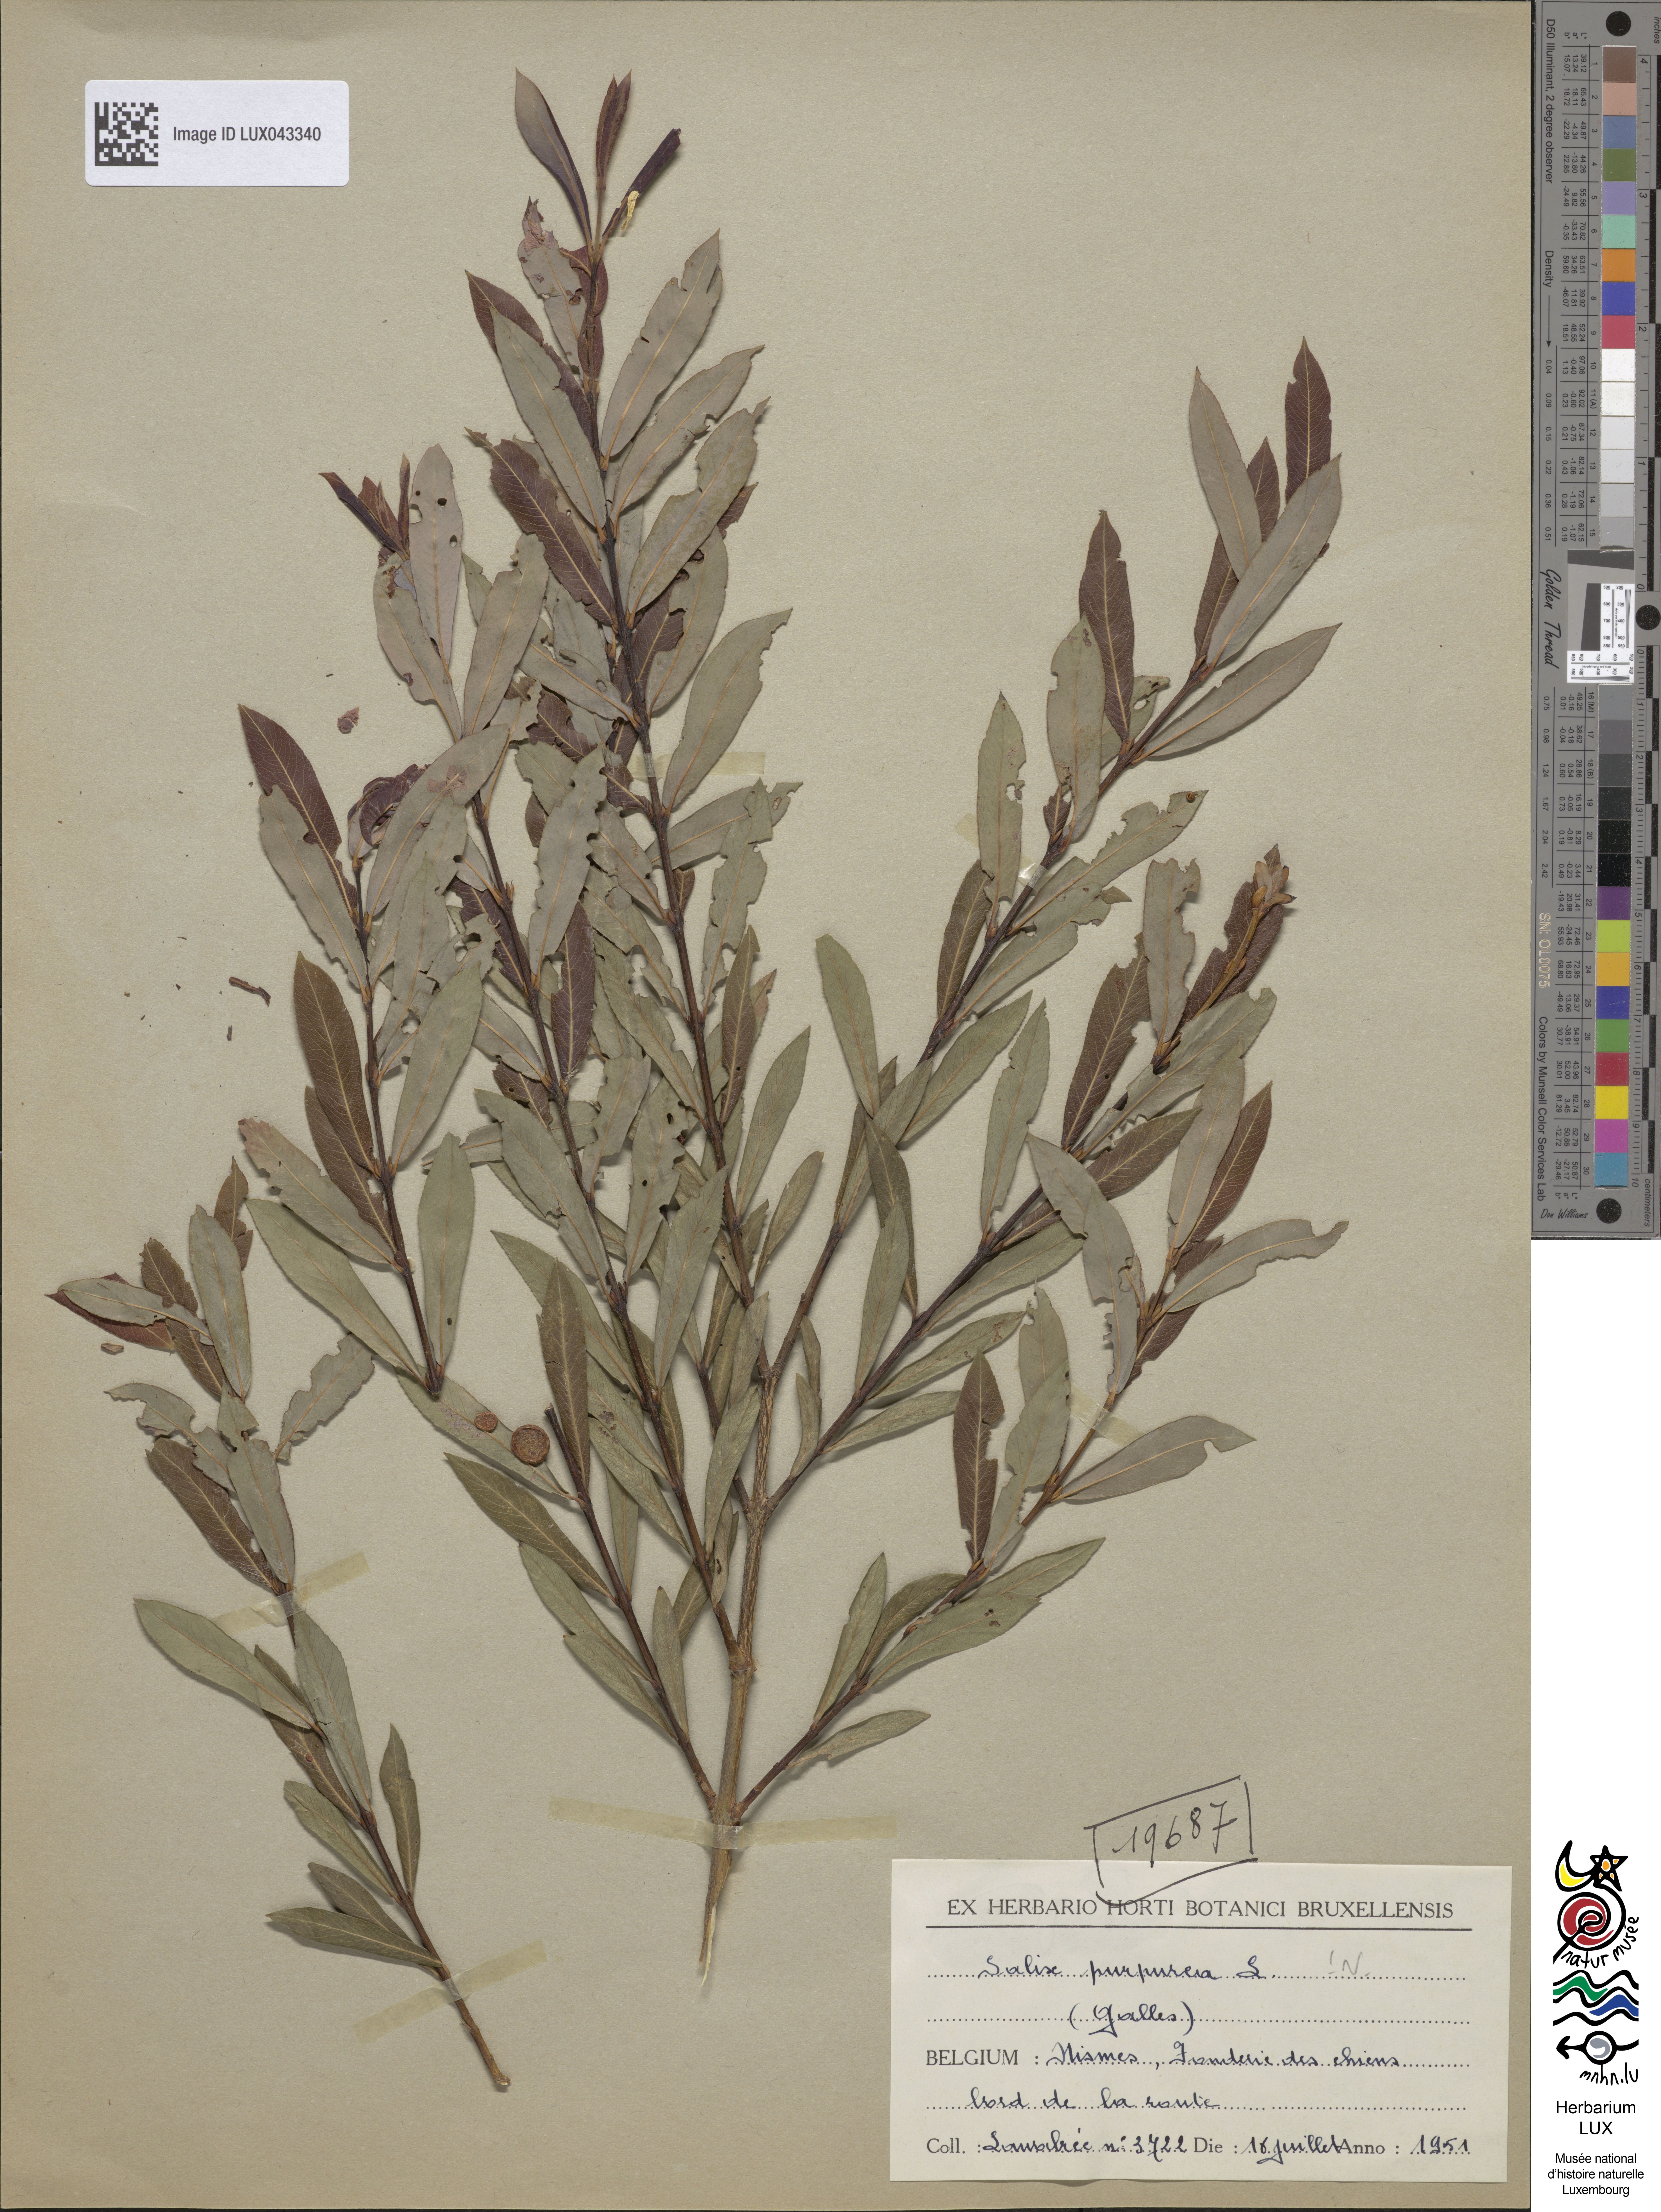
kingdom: Plantae
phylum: Tracheophyta
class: Magnoliopsida
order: Malpighiales
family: Salicaceae
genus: Salix
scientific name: Salix purpurea
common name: Purple willow
